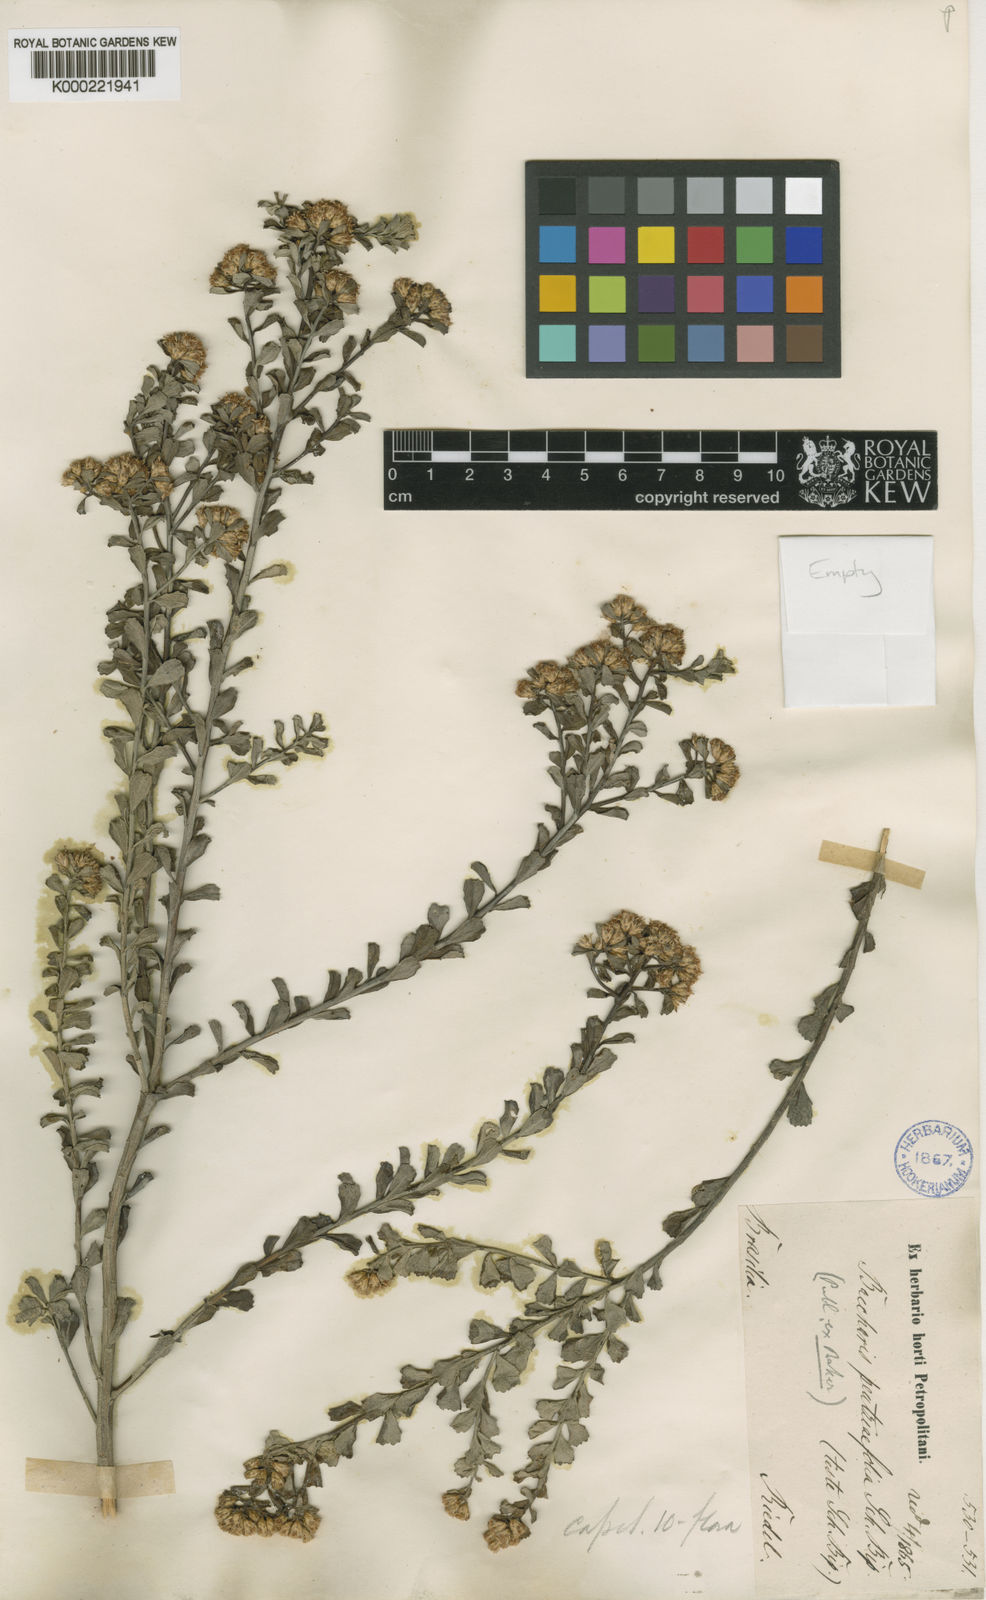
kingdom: Plantae
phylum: Tracheophyta
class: Magnoliopsida
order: Asterales
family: Asteraceae
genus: Baccharis
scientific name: Baccharis pentziifolia
